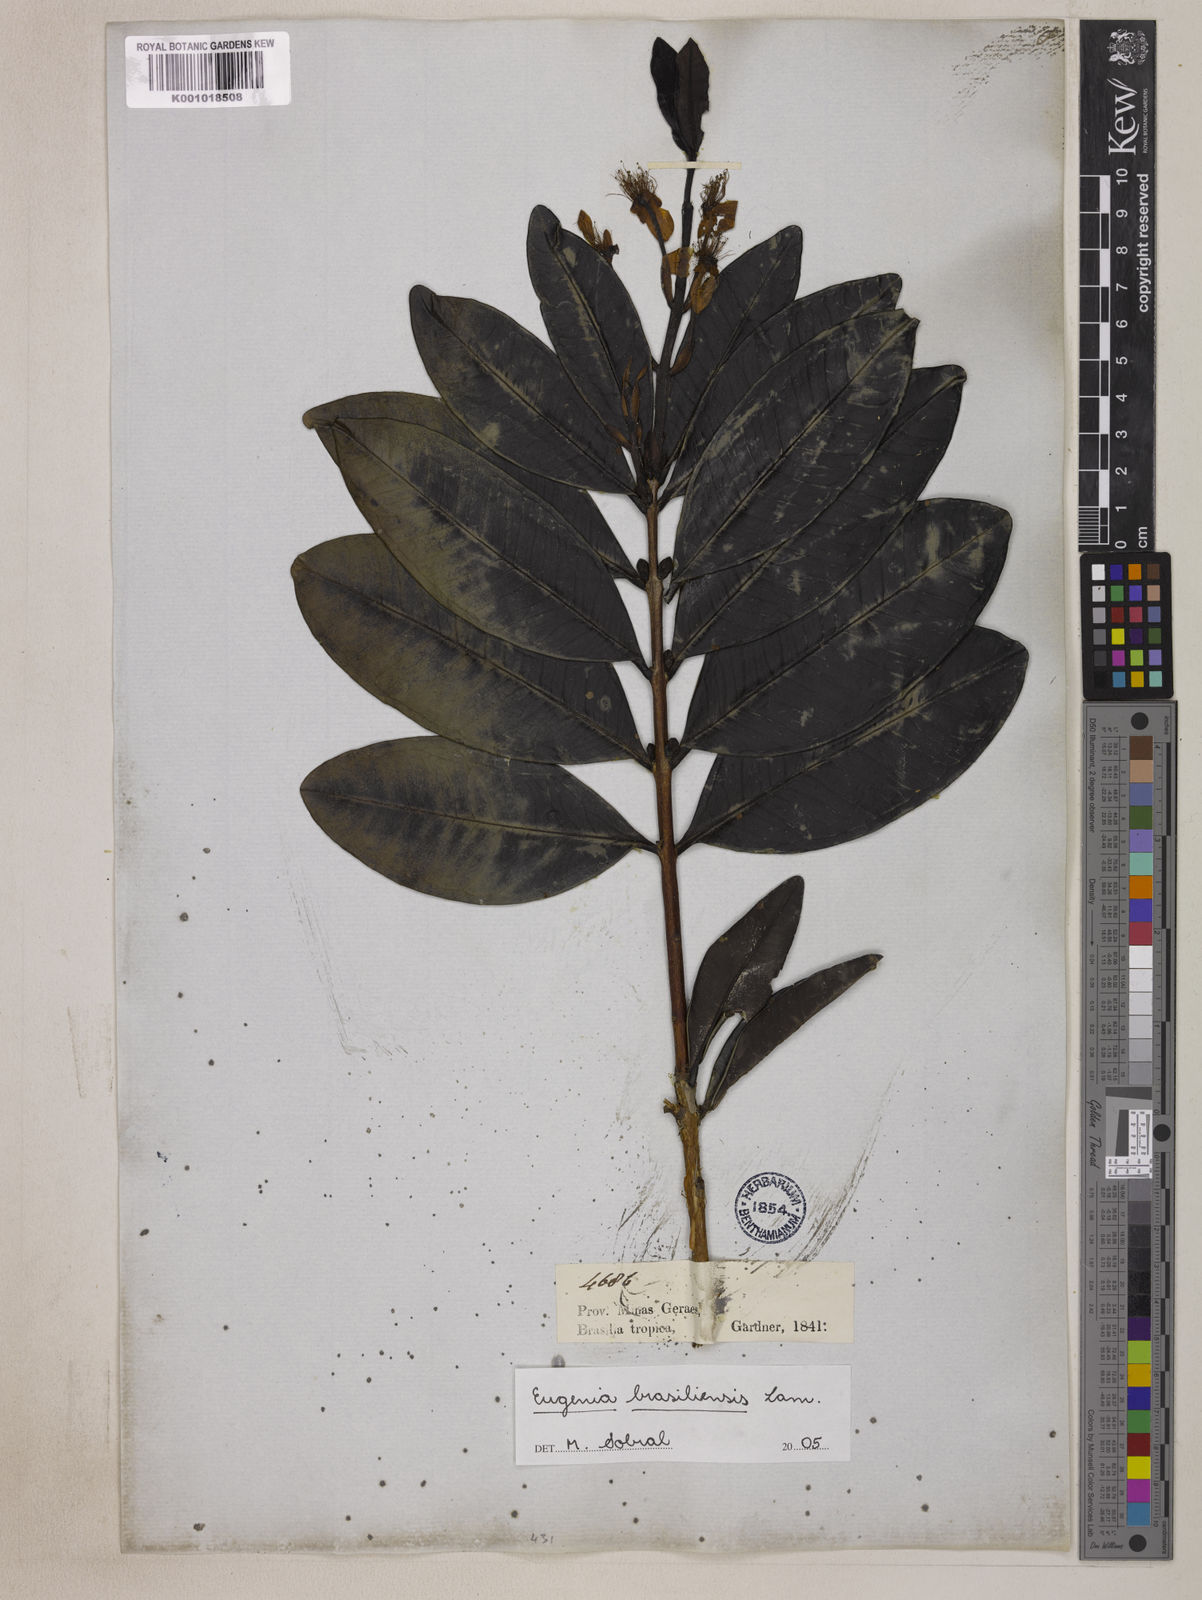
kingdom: Plantae
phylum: Tracheophyta
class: Magnoliopsida
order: Myrtales
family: Myrtaceae
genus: Eugenia
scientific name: Eugenia brasiliensis
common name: Grumichama
